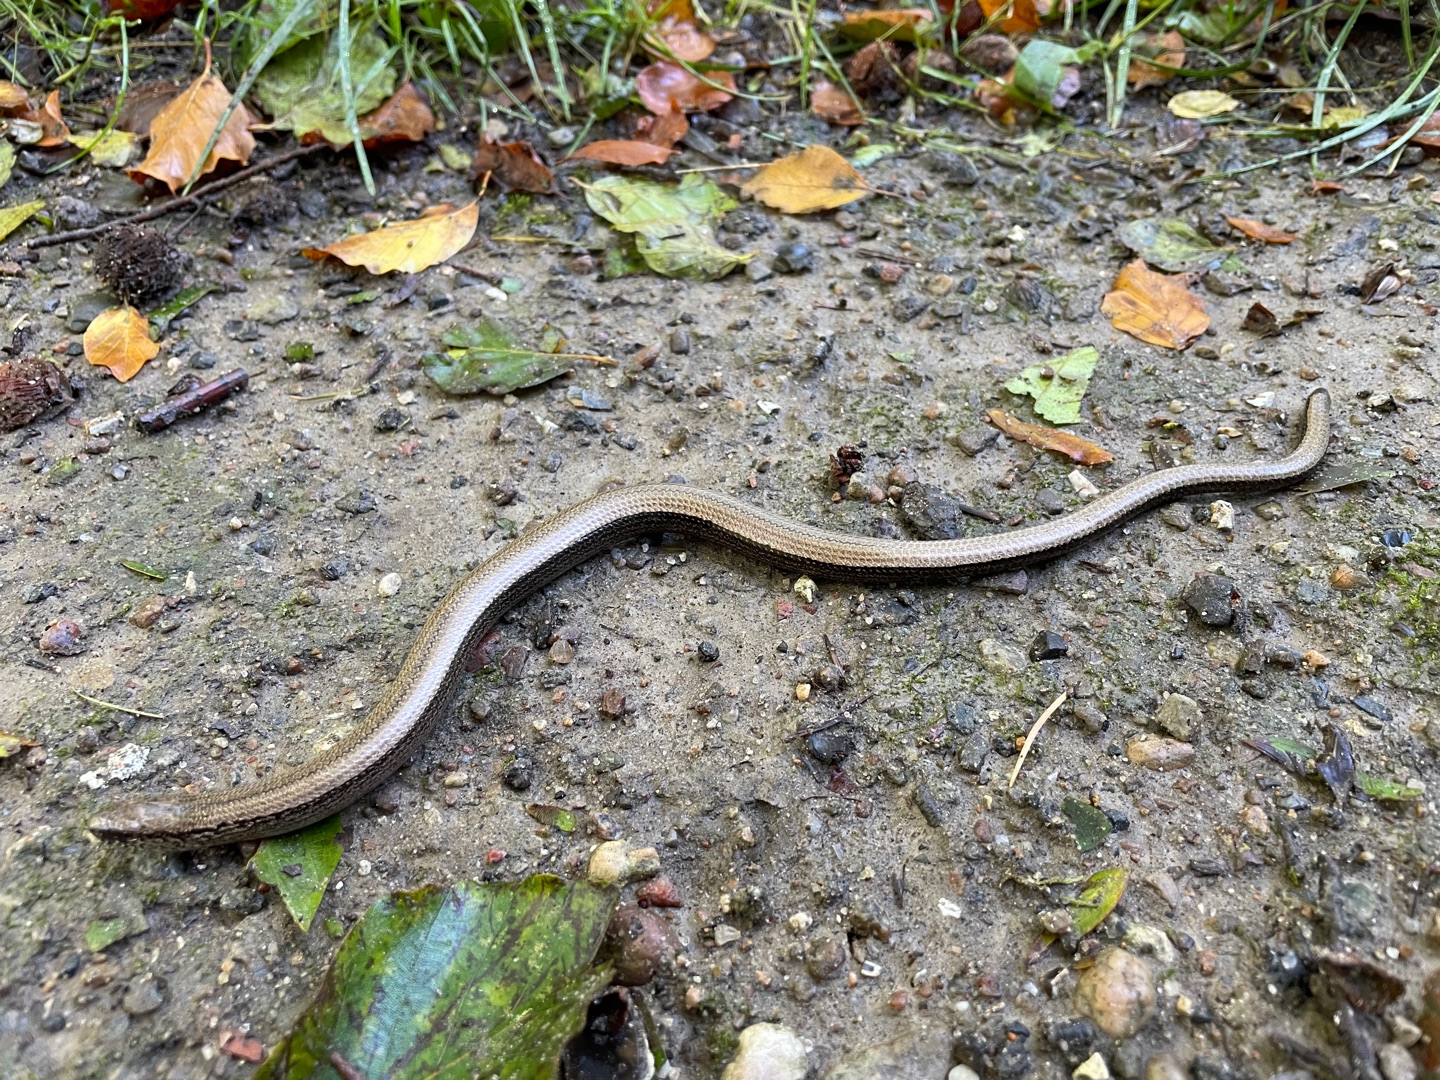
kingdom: Animalia
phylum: Chordata
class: Squamata
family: Anguidae
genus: Anguis
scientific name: Anguis fragilis
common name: Stålorm
